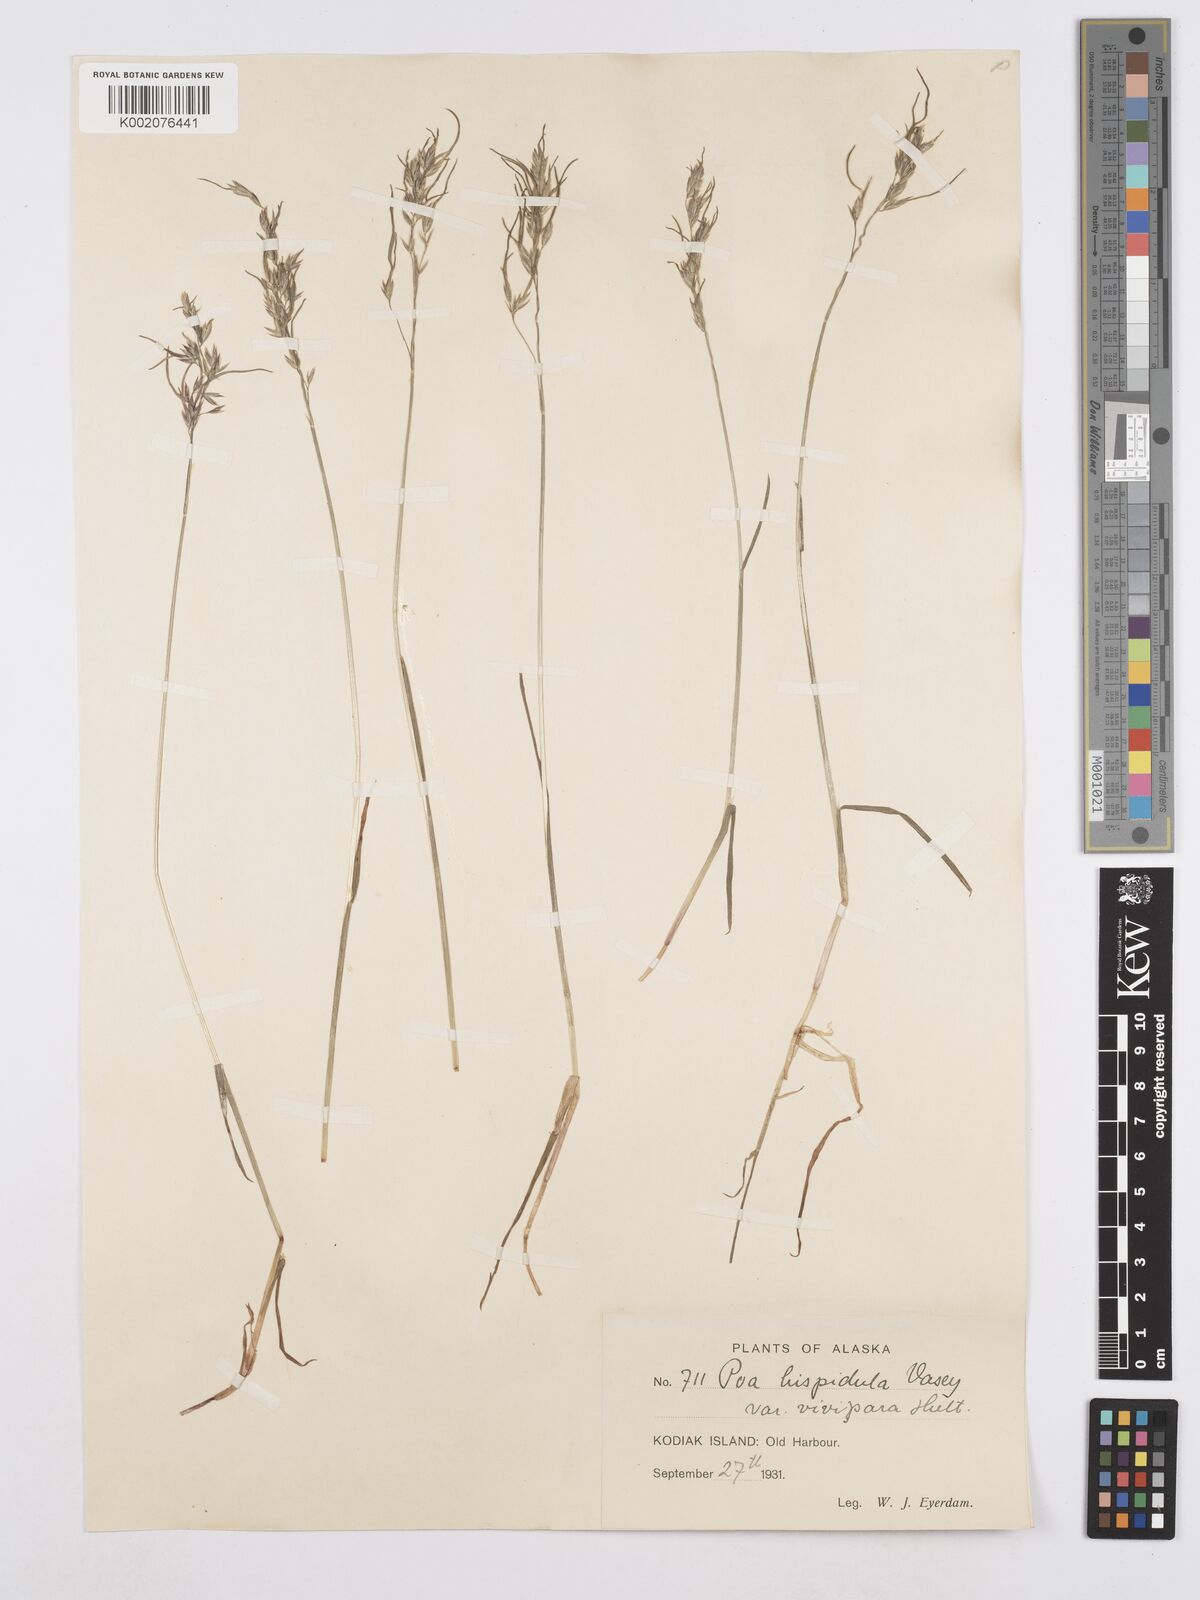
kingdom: Plantae
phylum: Tracheophyta
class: Liliopsida
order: Poales
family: Poaceae
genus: Poa
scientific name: Poa macrocalyx
